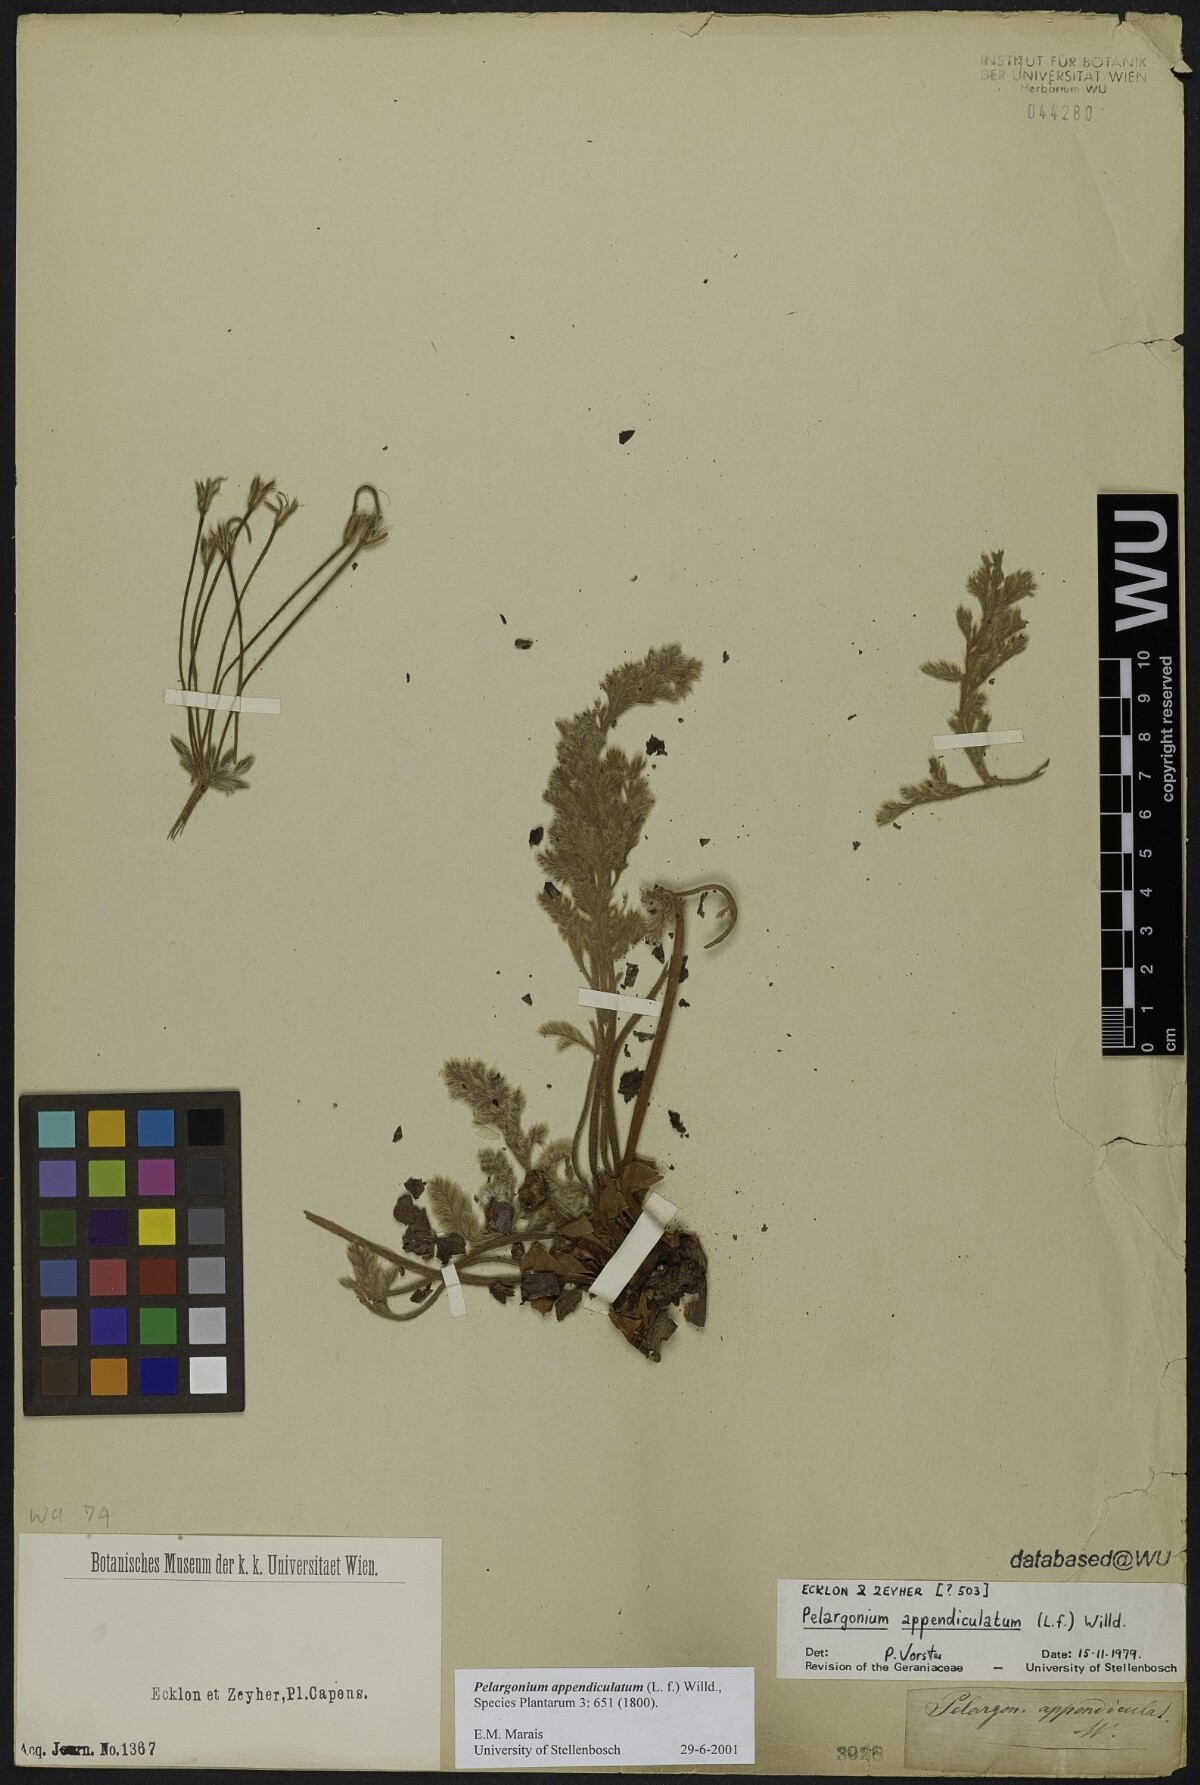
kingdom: Plantae
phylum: Tracheophyta
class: Magnoliopsida
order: Geraniales
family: Geraniaceae
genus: Pelargonium
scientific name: Pelargonium appendiculatum
